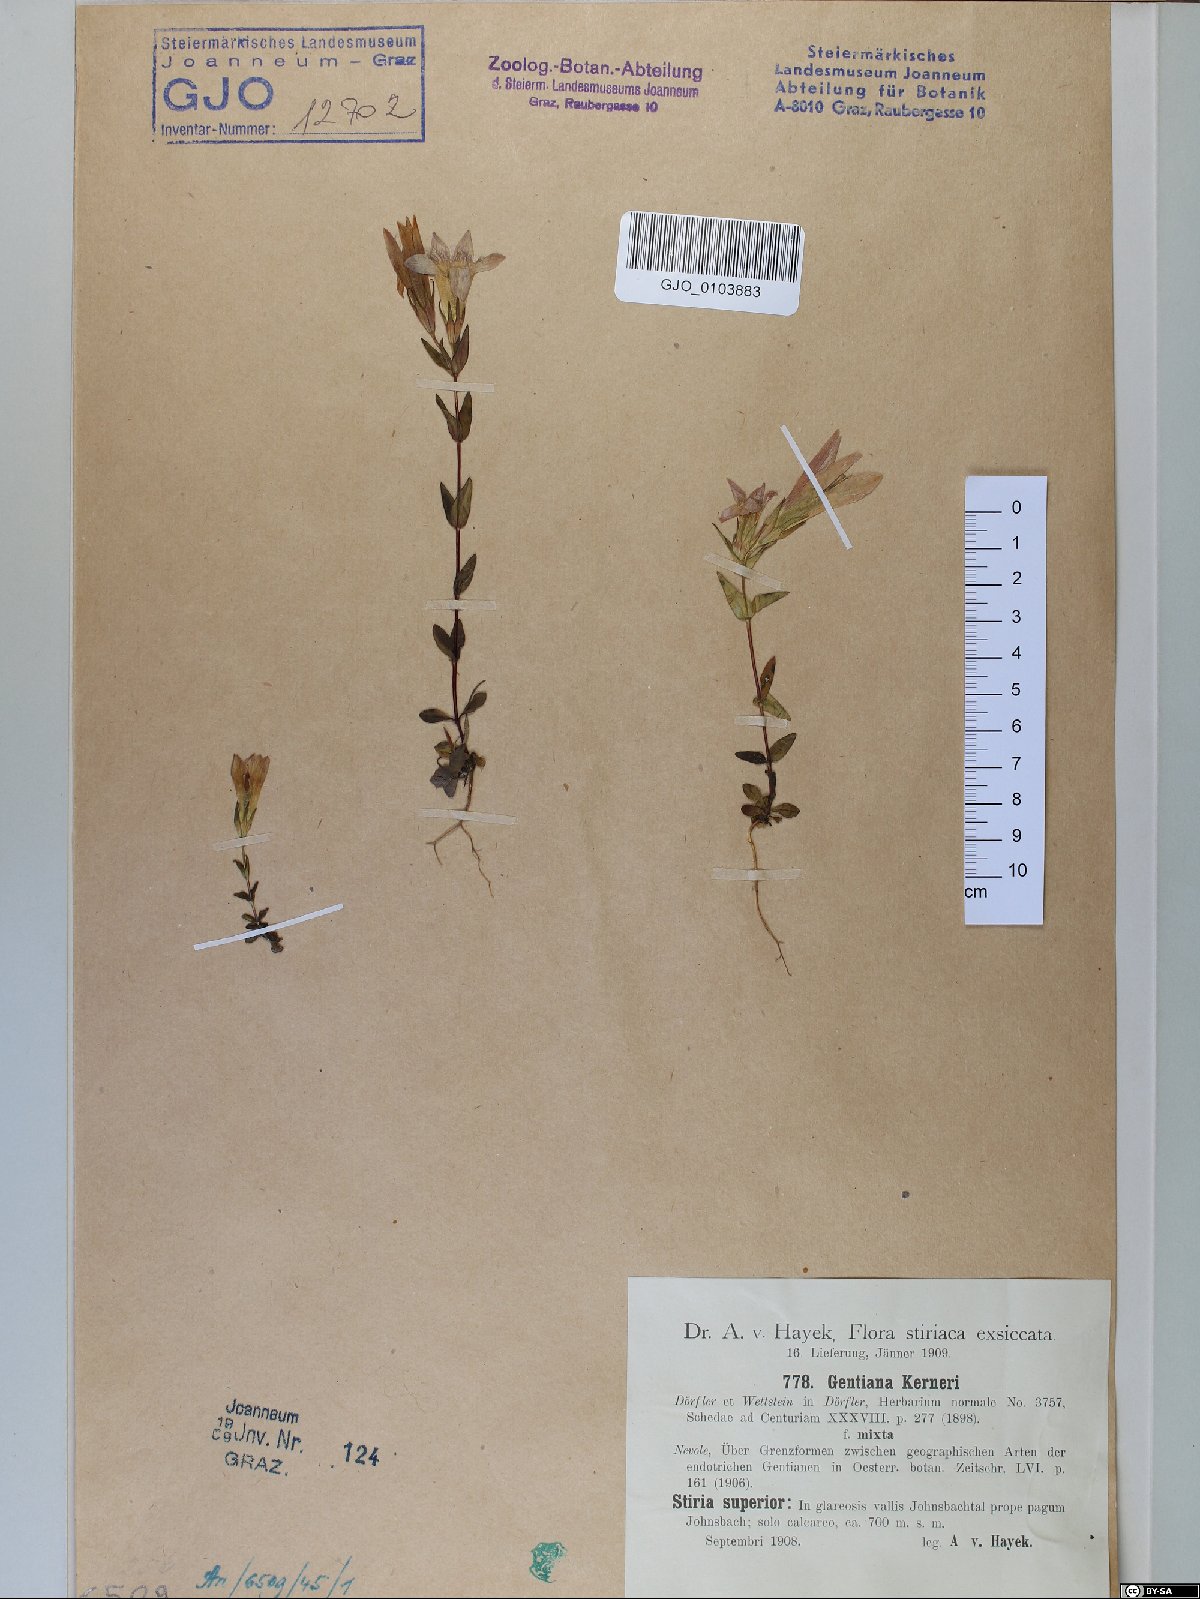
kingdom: Plantae
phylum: Tracheophyta
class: Magnoliopsida
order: Gentianales
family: Gentianaceae
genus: Gentianella
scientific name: Gentianella rhaetica
